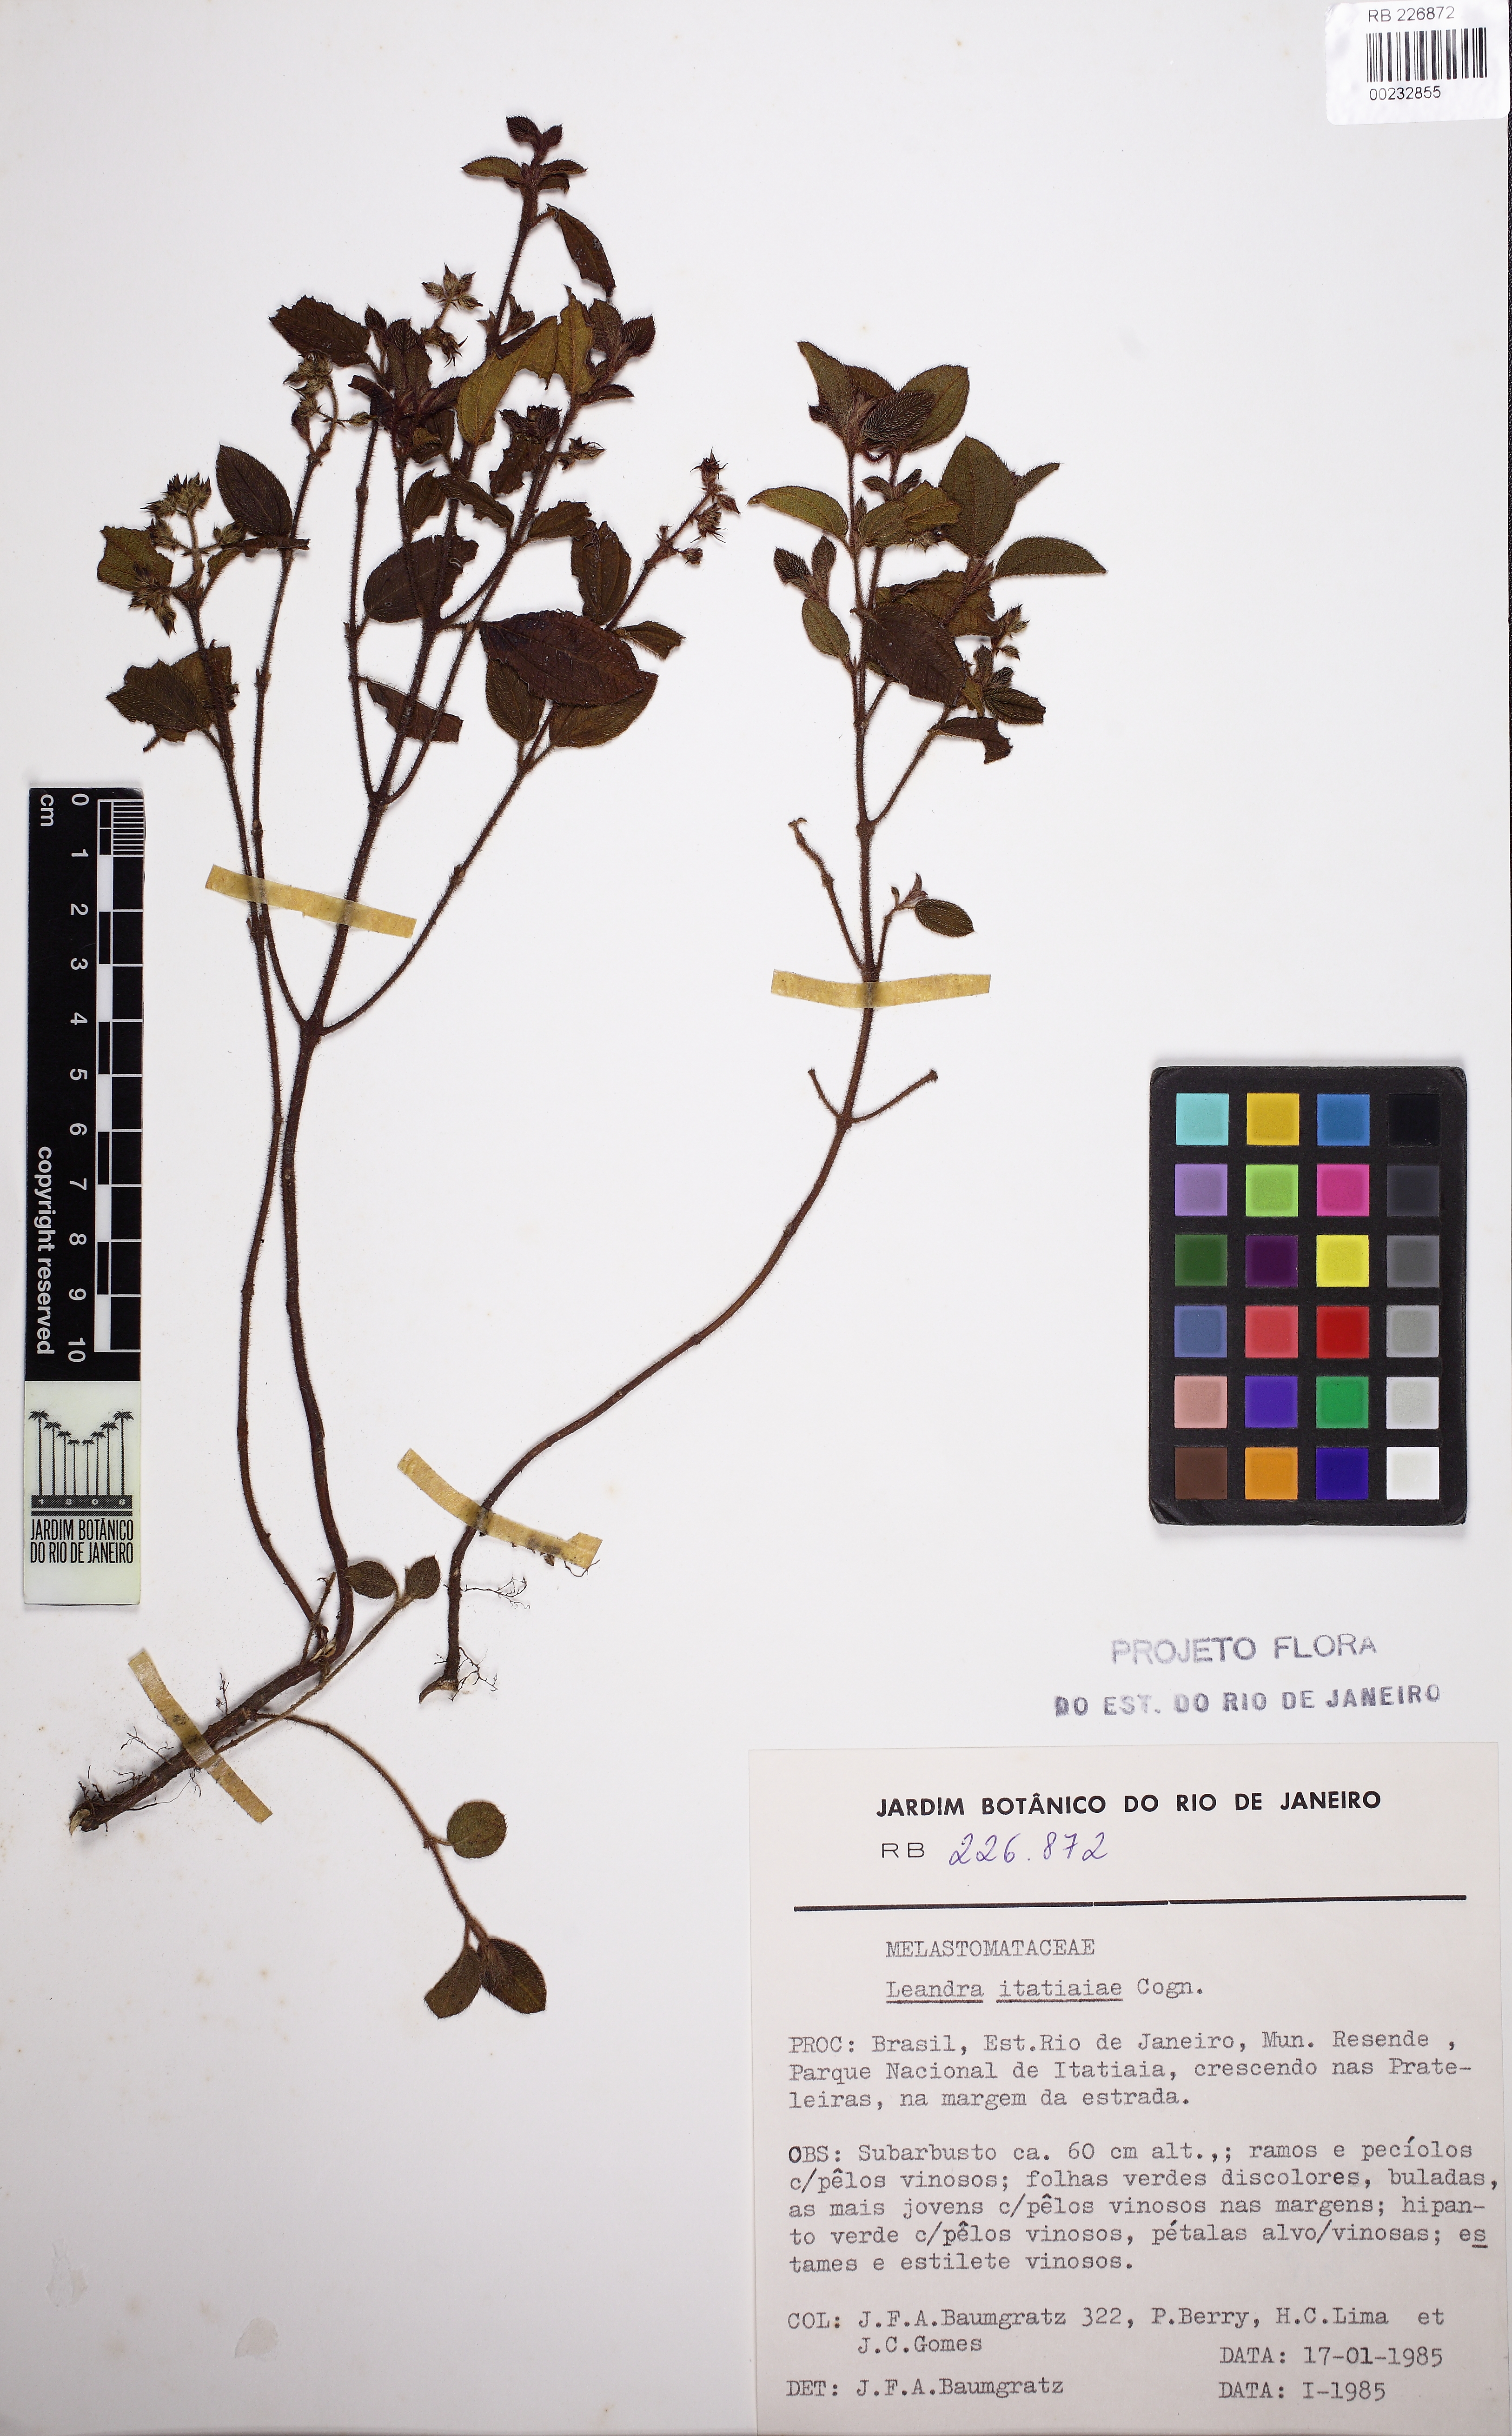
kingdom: Plantae
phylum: Tracheophyta
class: Magnoliopsida
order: Myrtales
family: Melastomataceae
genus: Miconia
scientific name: Miconia itatiaiae
